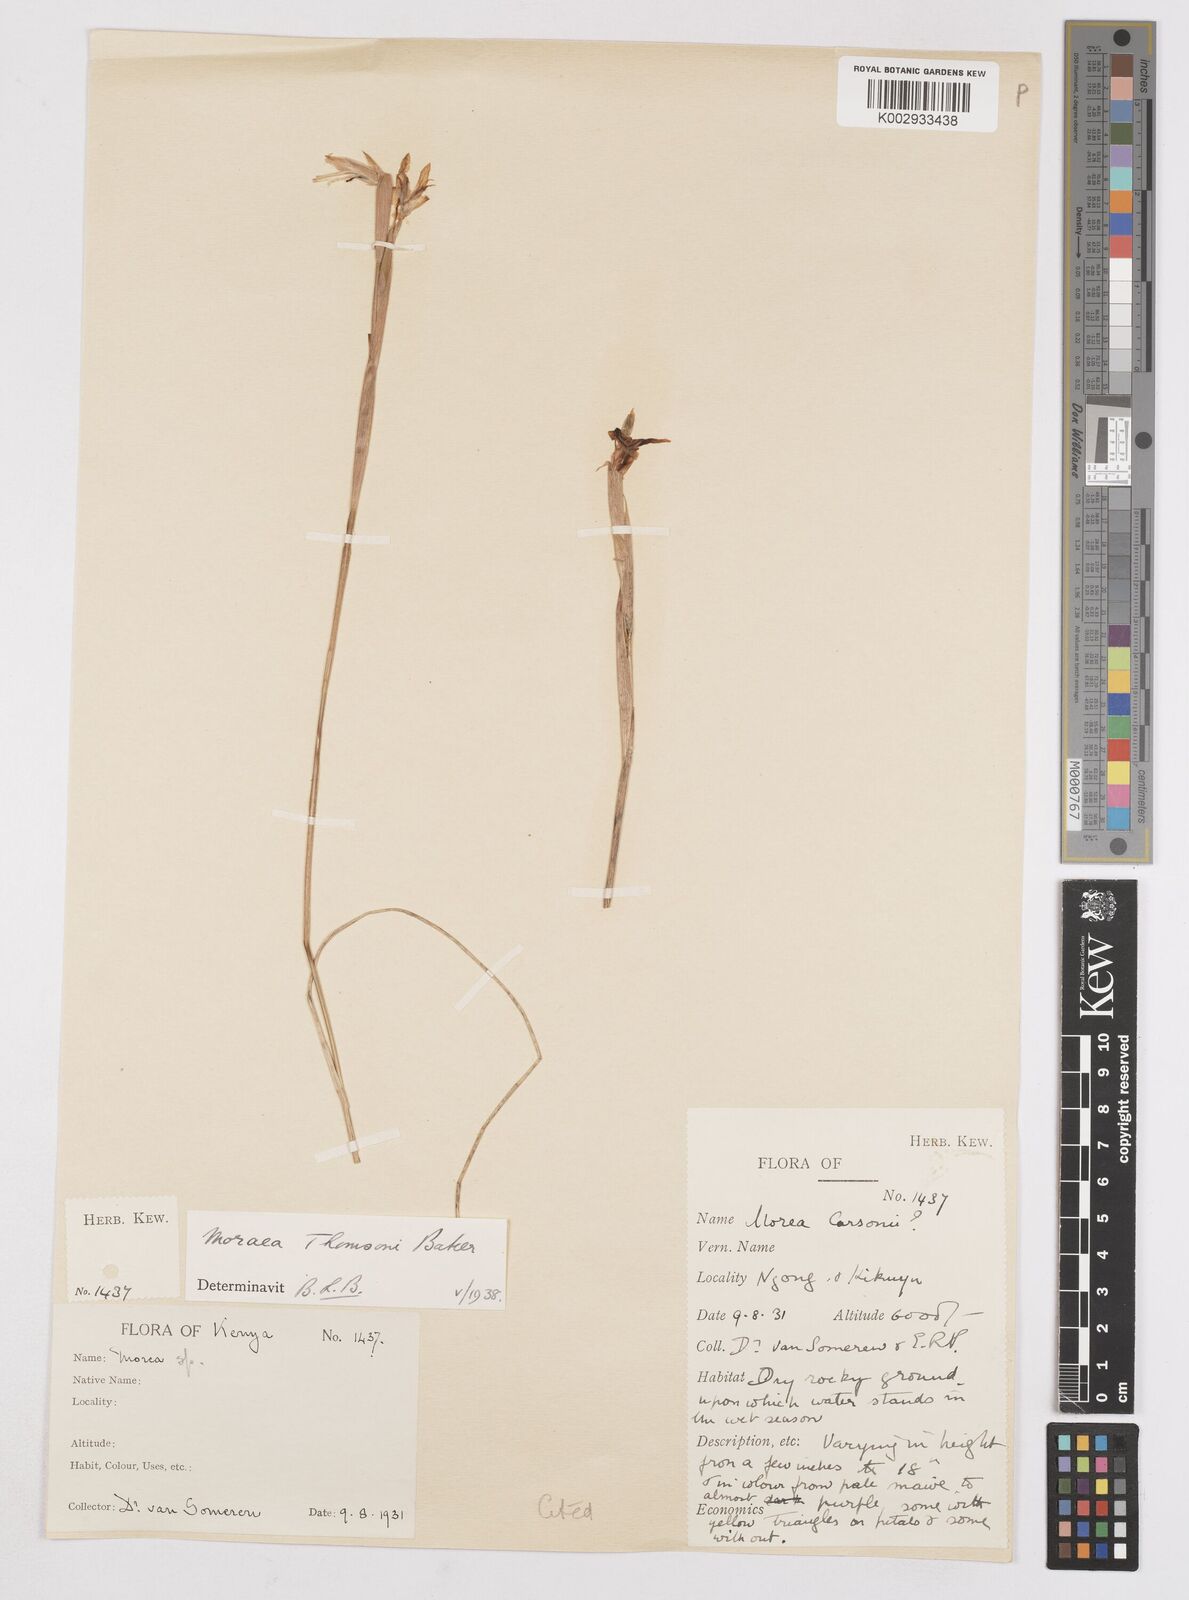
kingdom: Plantae
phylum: Tracheophyta
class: Liliopsida
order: Asparagales
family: Iridaceae
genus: Moraea
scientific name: Moraea stricta
